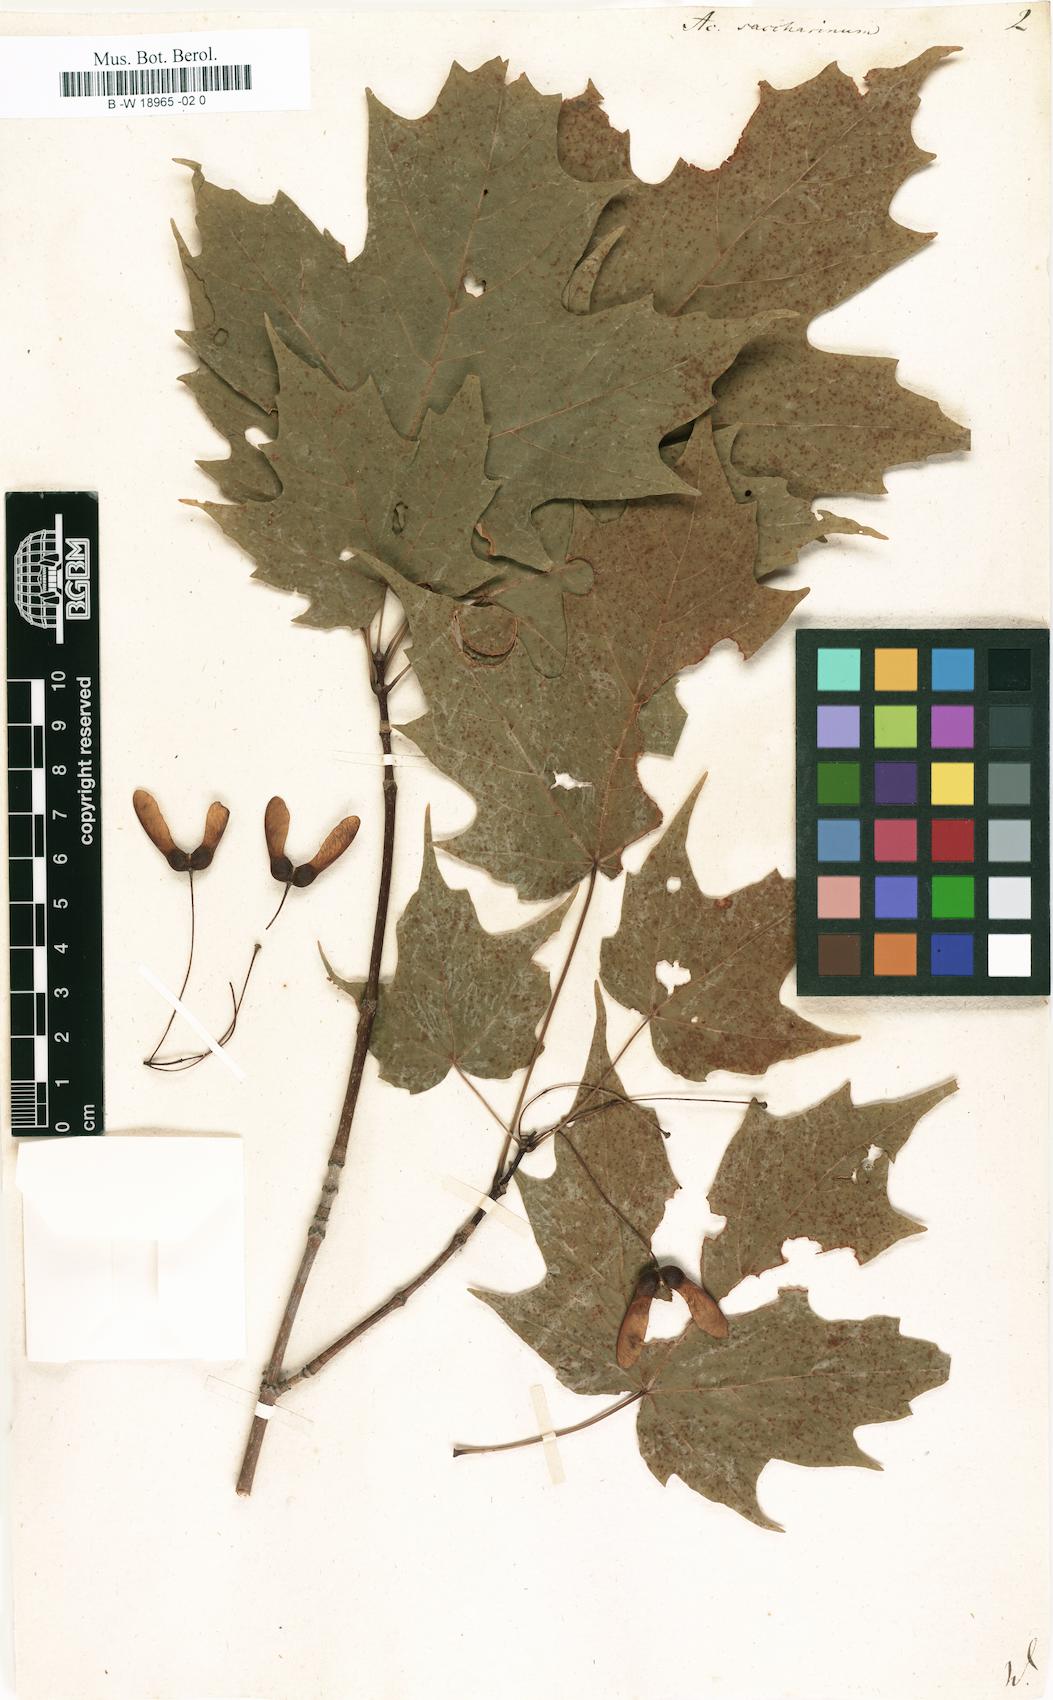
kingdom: Plantae
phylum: Tracheophyta
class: Magnoliopsida
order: Sapindales
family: Sapindaceae
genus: Acer
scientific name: Acer saccharinum
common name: Silver maple
